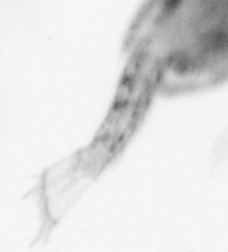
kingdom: Animalia
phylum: Arthropoda
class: Copepoda
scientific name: Copepoda
